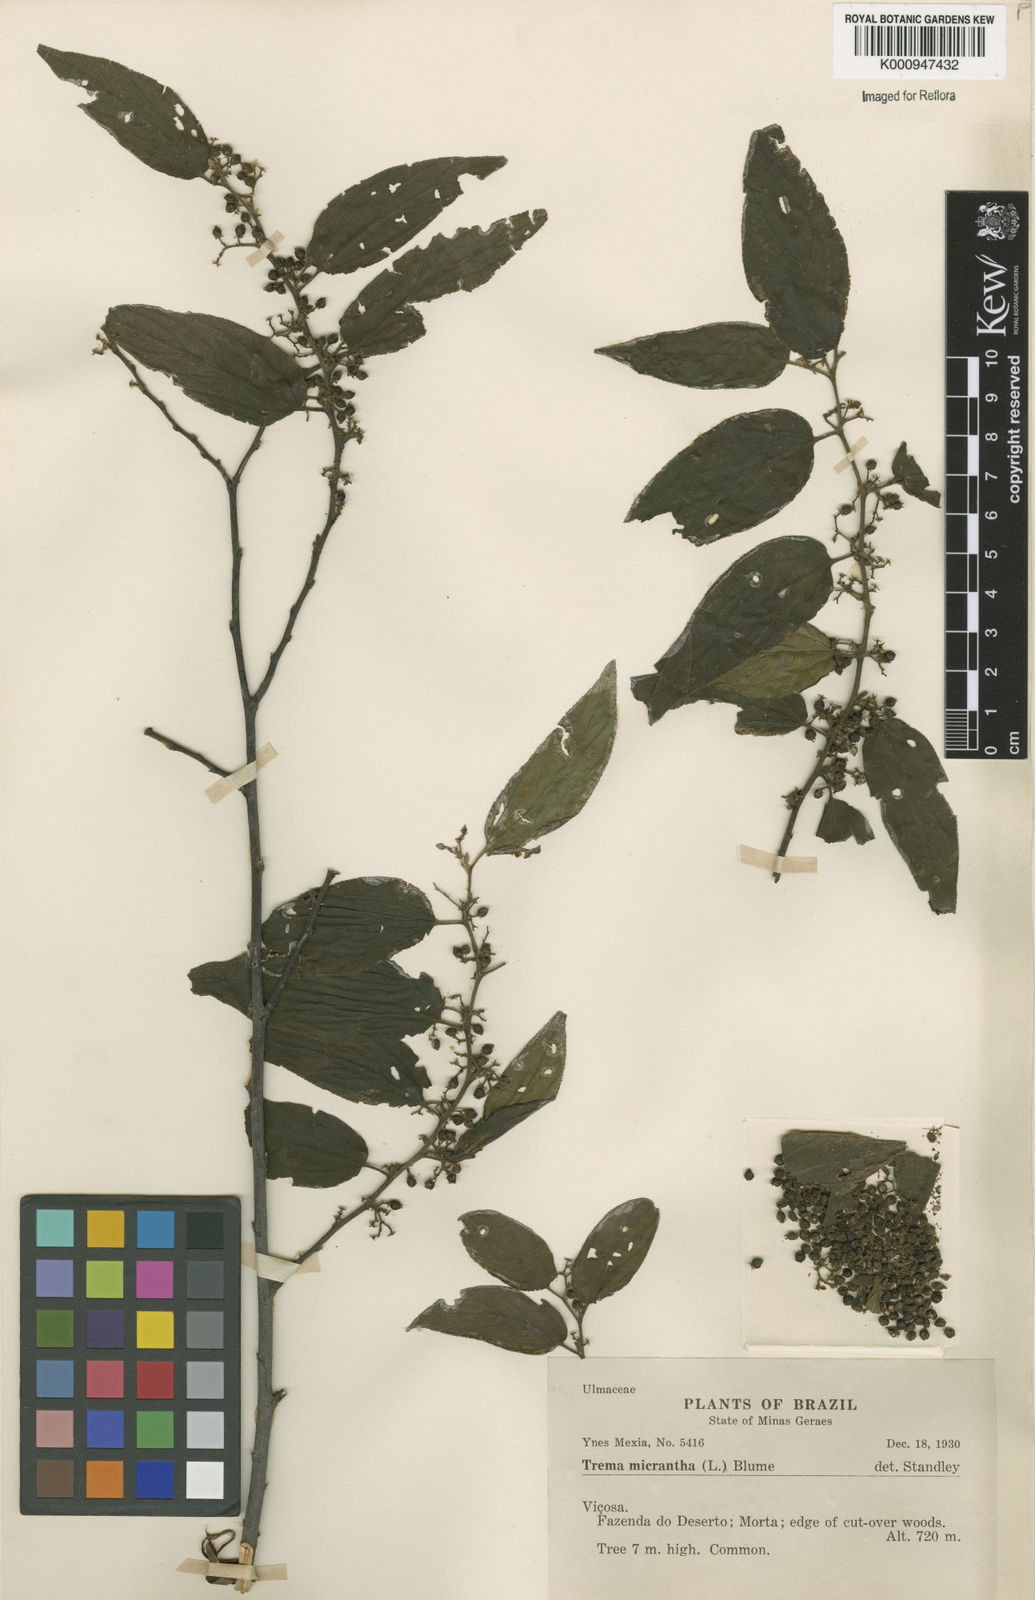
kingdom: Plantae
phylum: Tracheophyta
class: Magnoliopsida
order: Rosales
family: Cannabaceae
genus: Trema
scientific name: Trema micranthum
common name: Jamaican nettletree
